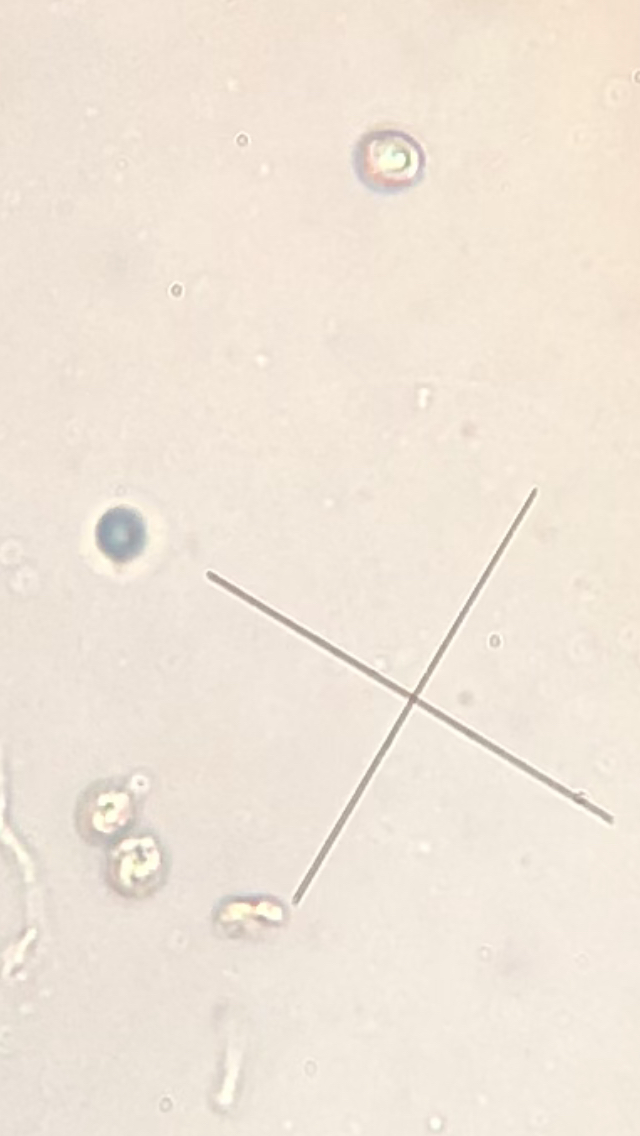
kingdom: Fungi
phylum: Basidiomycota
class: Agaricomycetes
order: Agaricales
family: Pleurotaceae
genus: Resupinatus
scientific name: Resupinatus poriaeformis
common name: tæpperør
